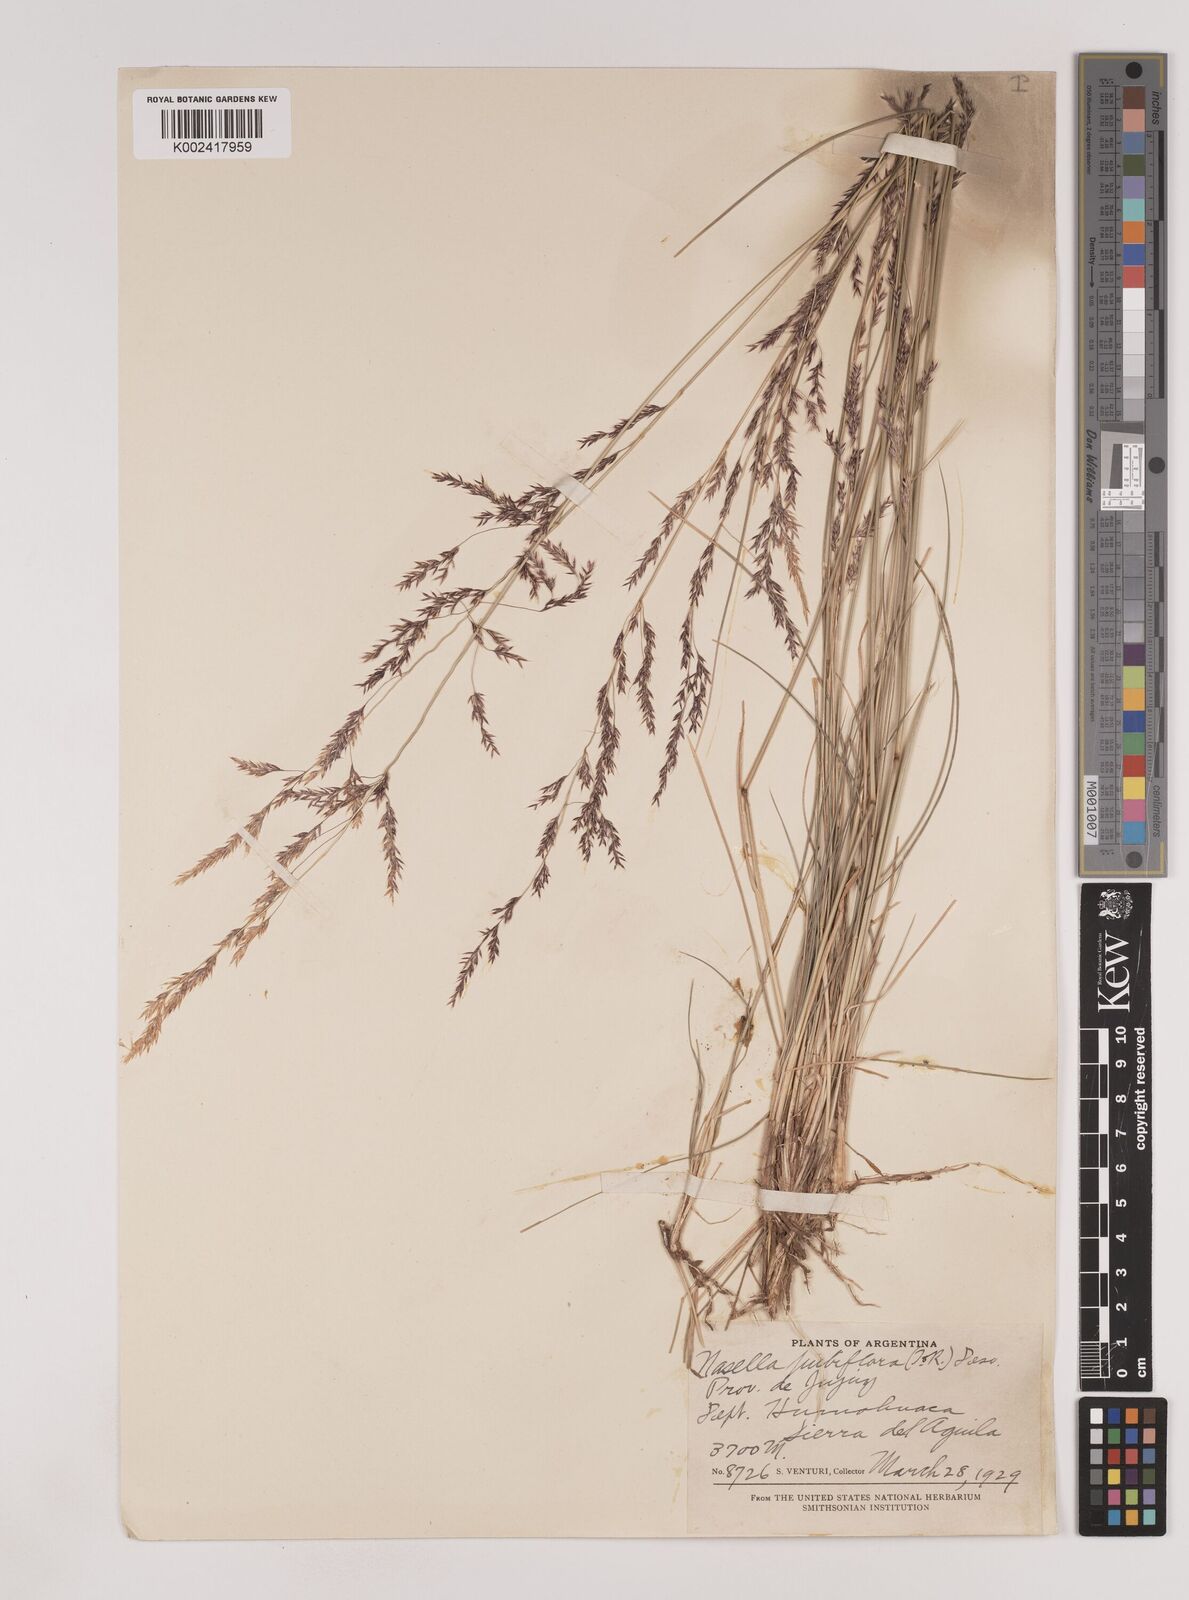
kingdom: Plantae
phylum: Tracheophyta
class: Liliopsida
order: Poales
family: Poaceae
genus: Nassella
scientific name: Nassella pubiflora
